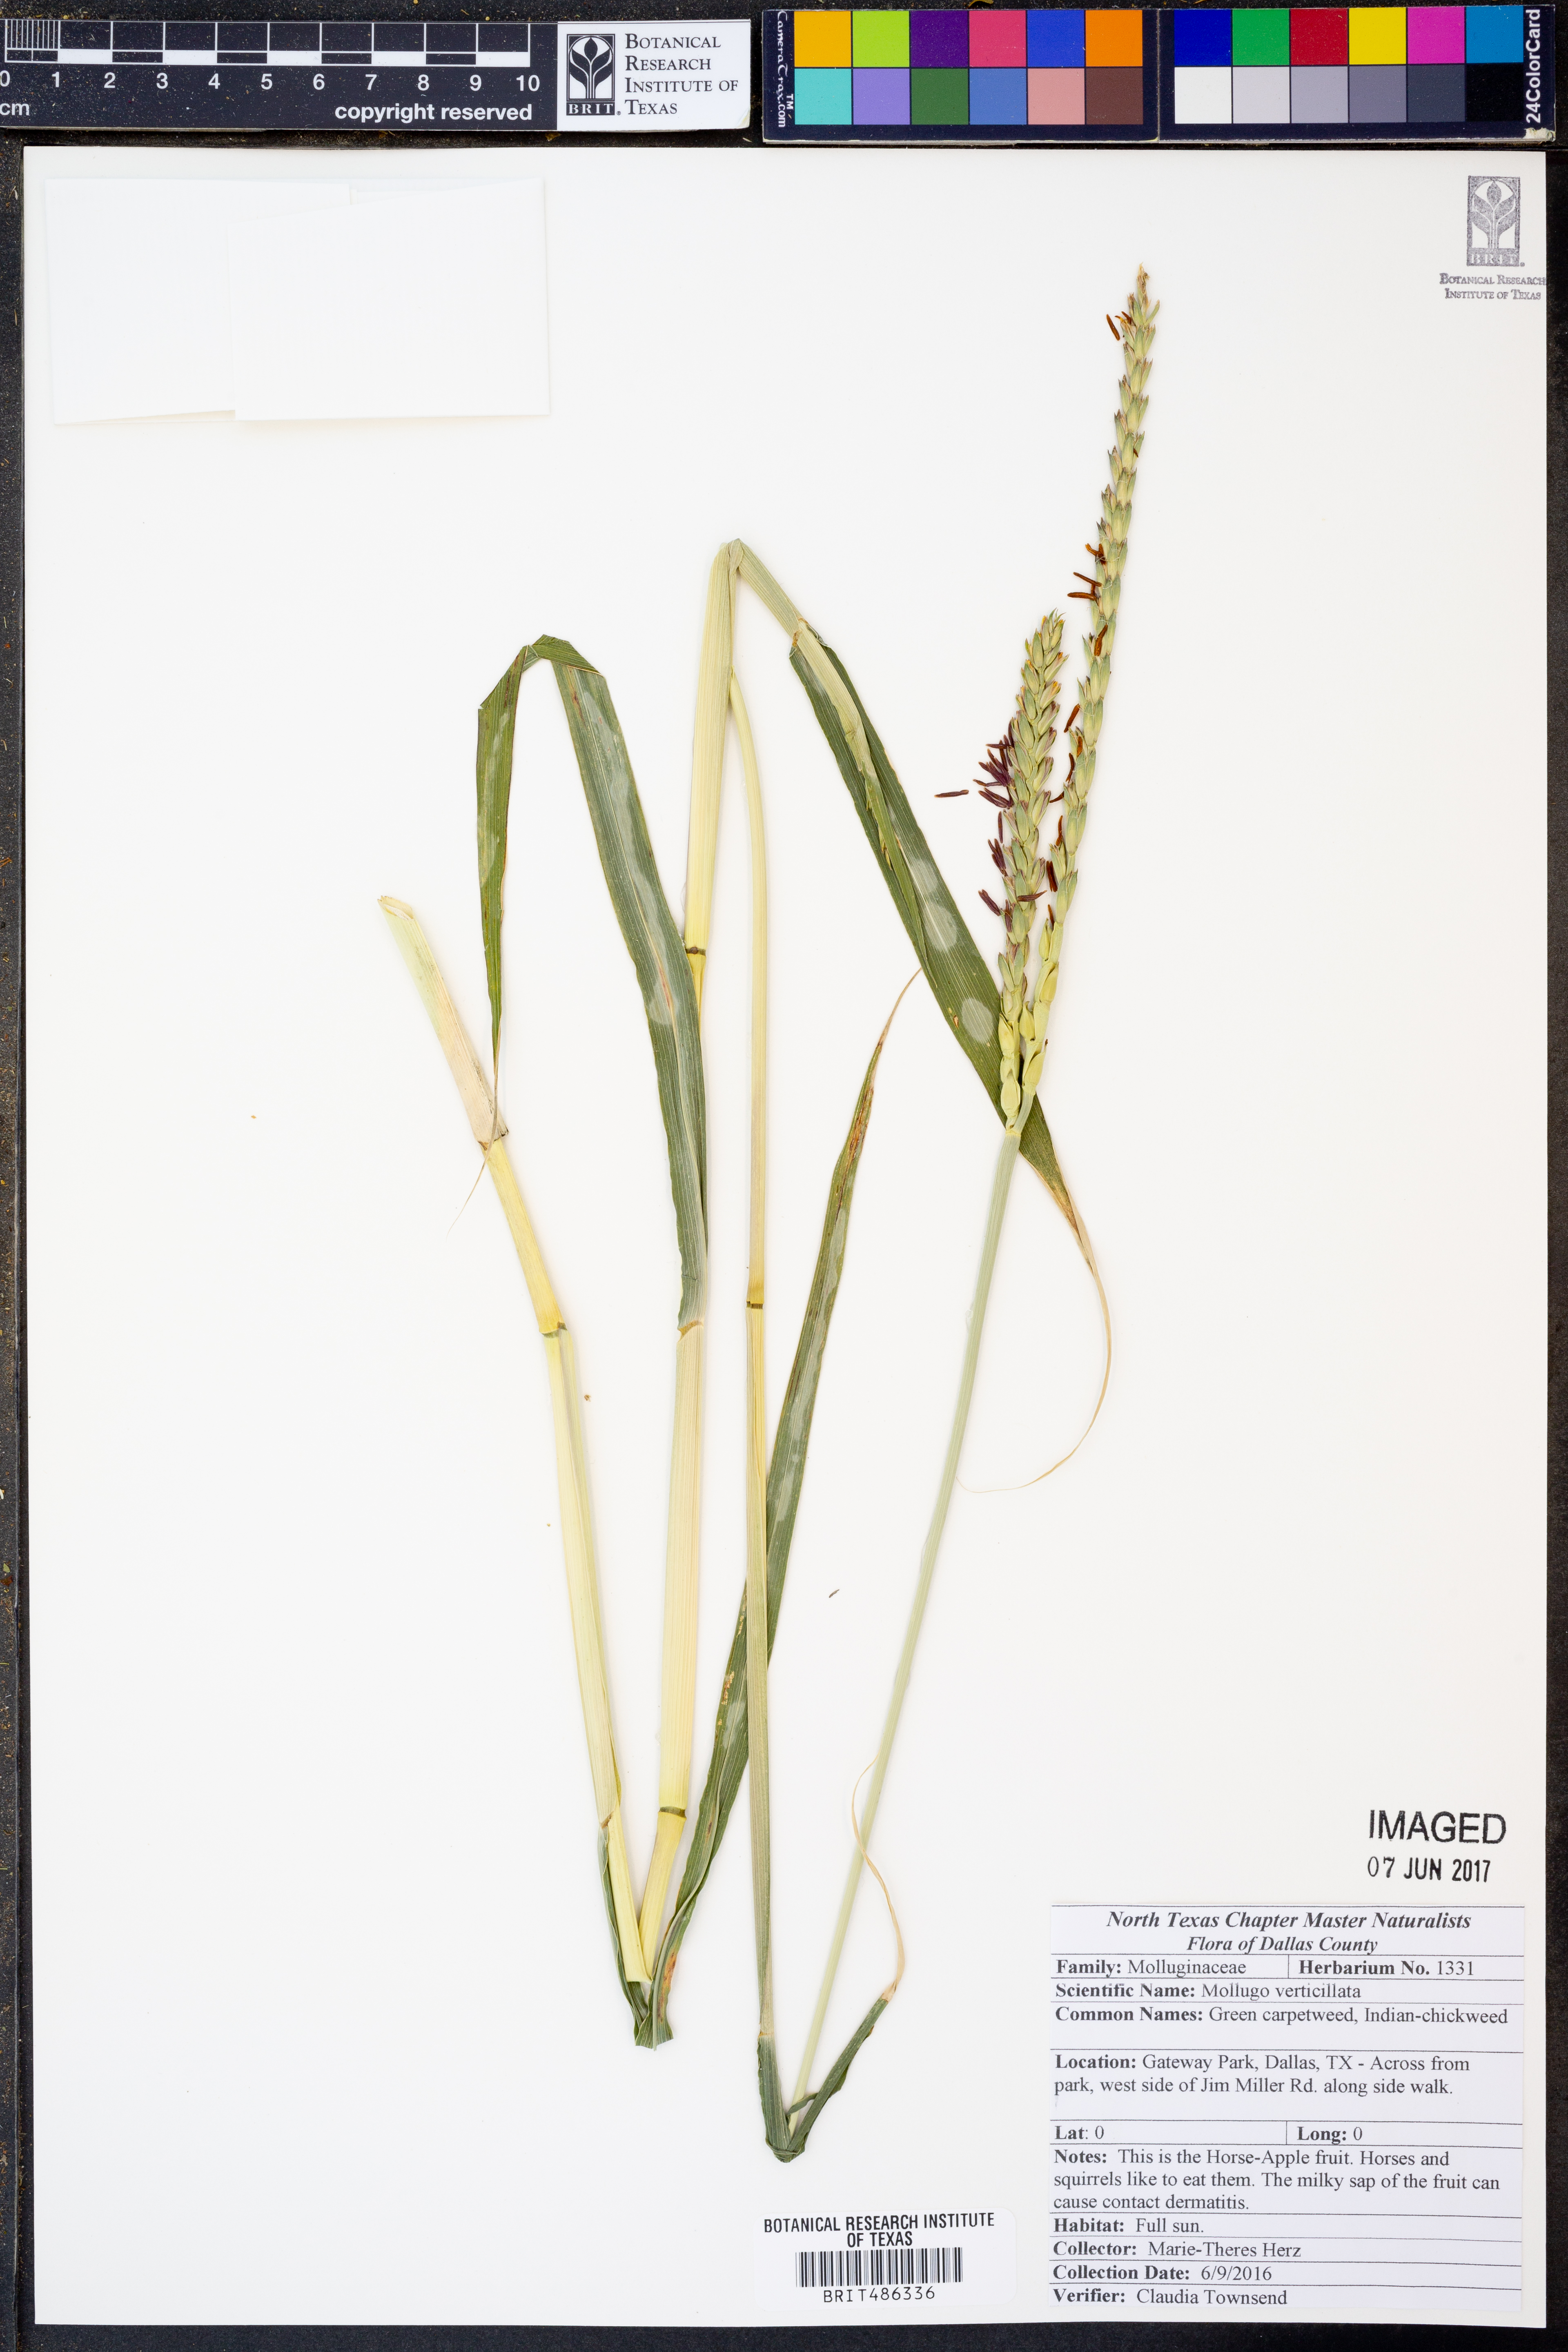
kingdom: Plantae
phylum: Tracheophyta
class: Magnoliopsida
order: Caryophyllales
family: Molluginaceae
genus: Mollugo
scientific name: Mollugo verticillata
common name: Green carpetweed
